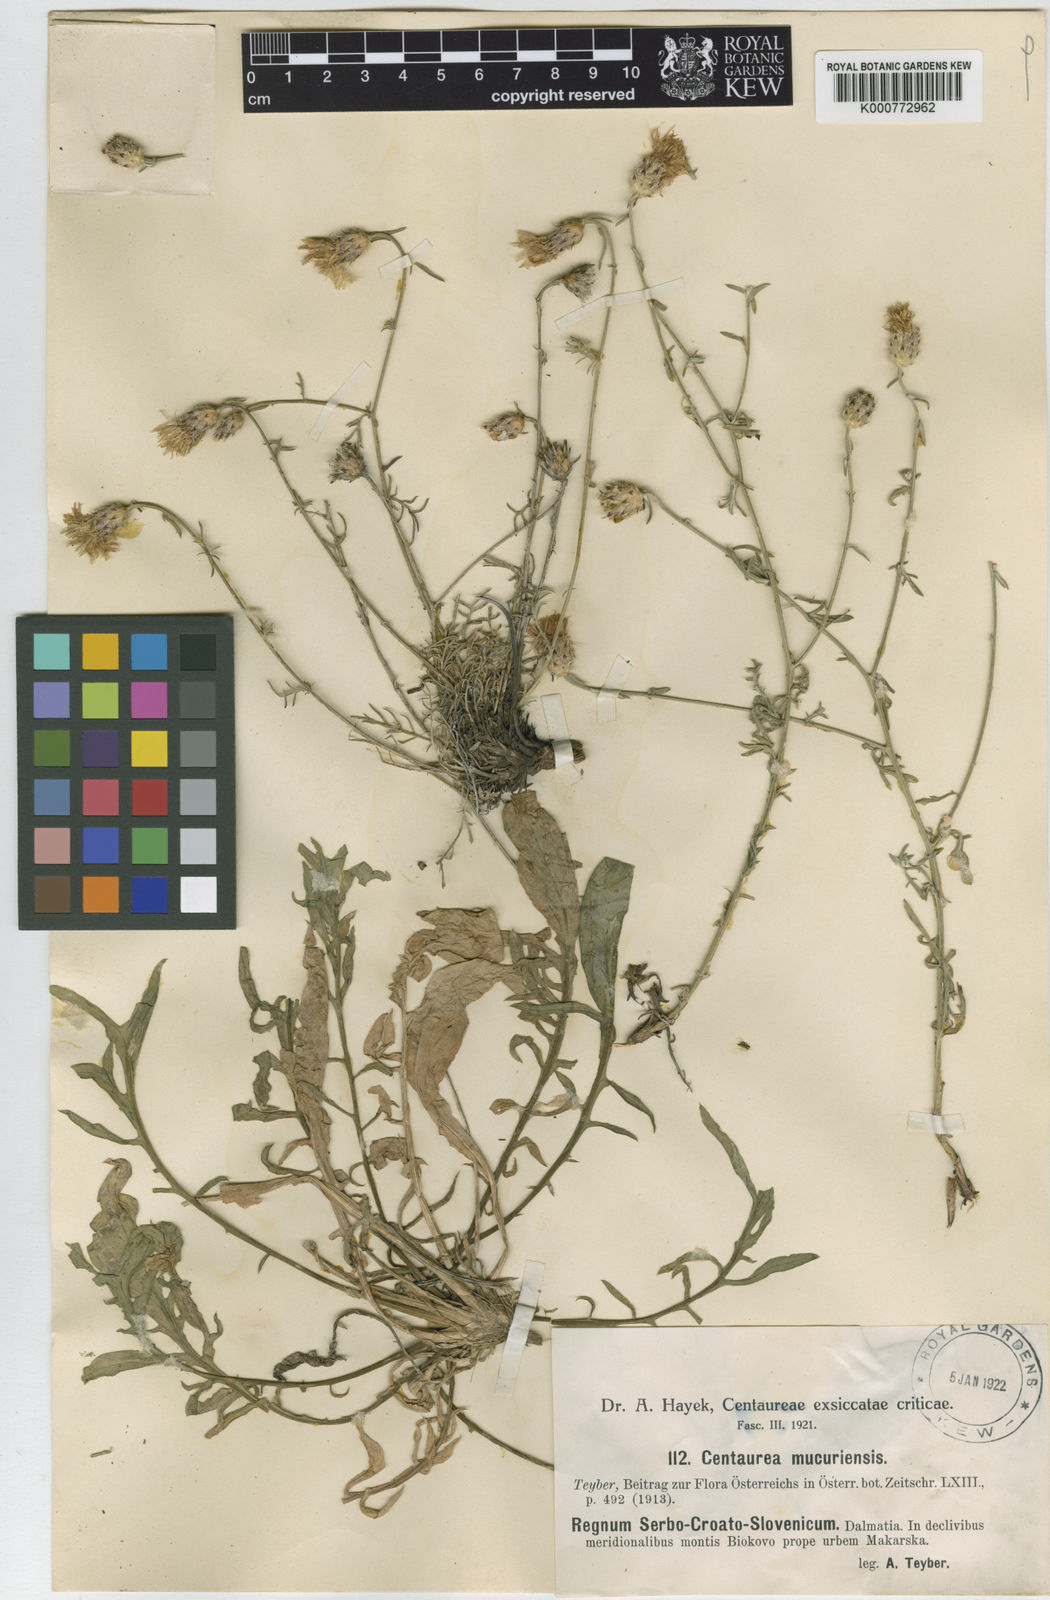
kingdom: Plantae
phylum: Tracheophyta
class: Magnoliopsida
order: Asterales
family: Asteraceae
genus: Centaurea
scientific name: Centaurea biokovensis
